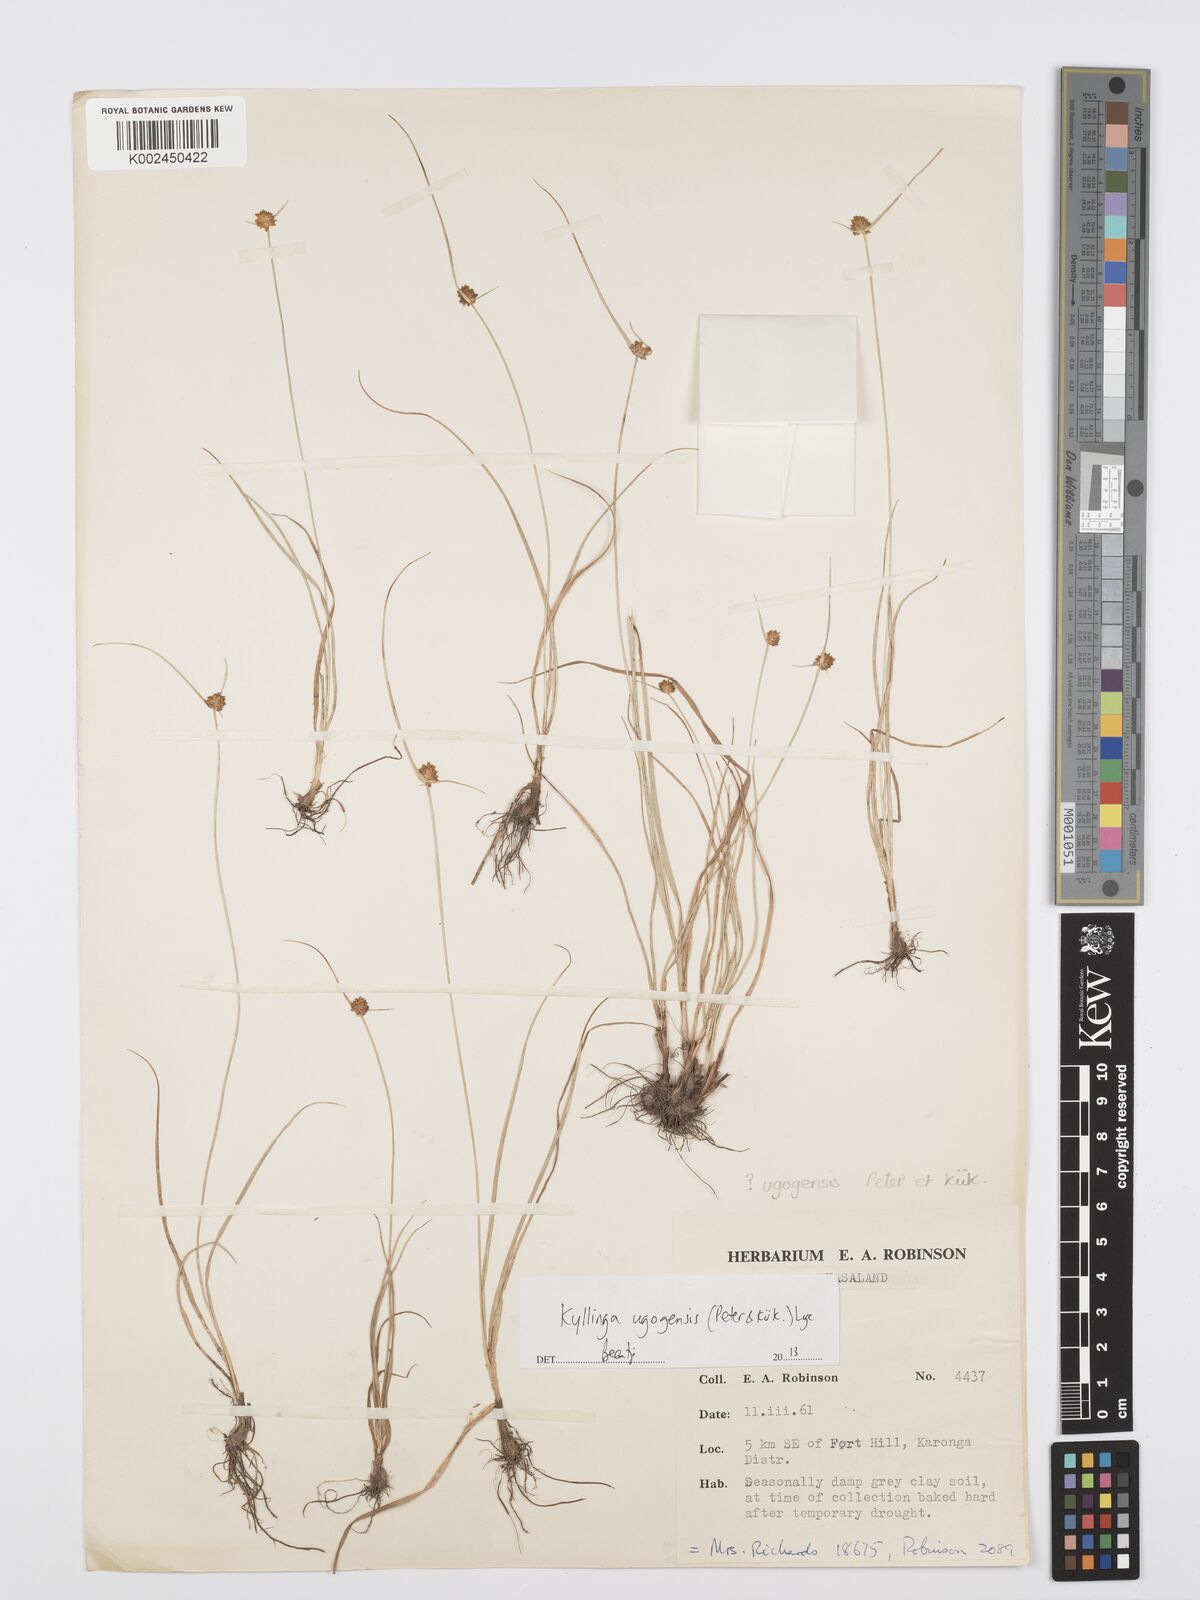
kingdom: Plantae
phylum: Tracheophyta
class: Liliopsida
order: Poales
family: Cyperaceae
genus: Cyperus
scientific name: Cyperus ugogensis
